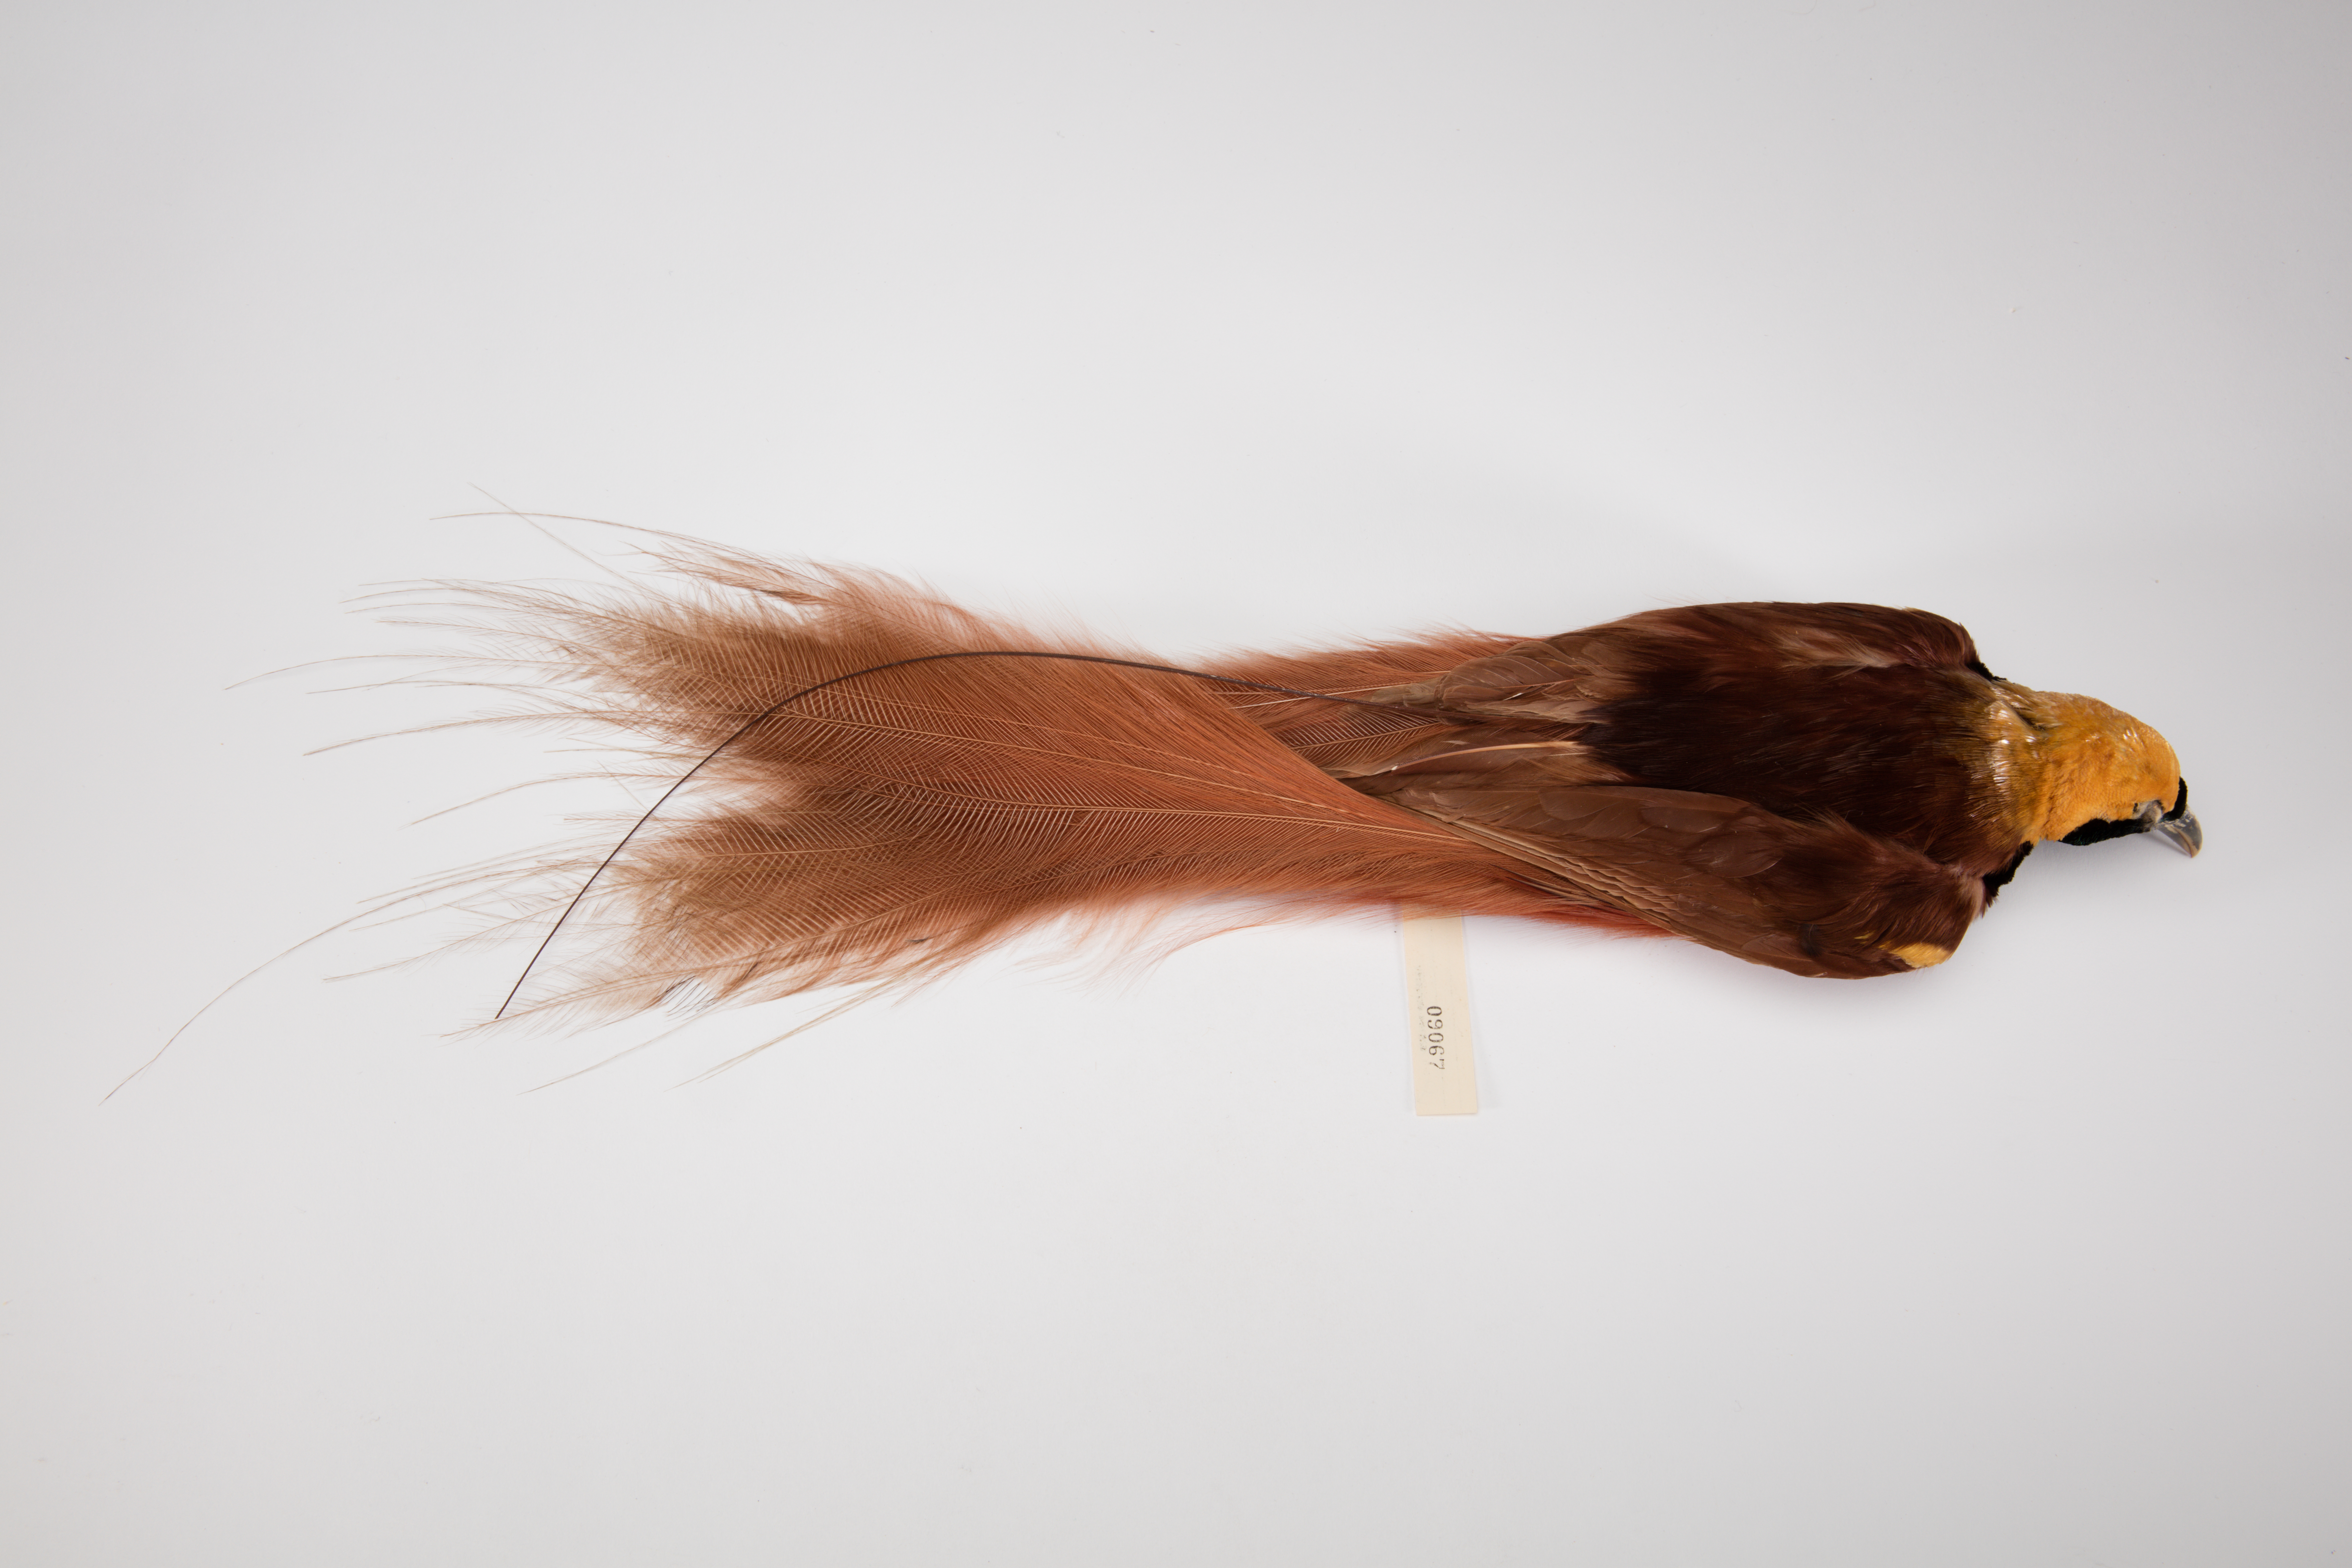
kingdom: Animalia
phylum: Chordata
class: Aves
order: Passeriformes
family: Paradisaeidae
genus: Paradisaea
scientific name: Paradisaea raggiana
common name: Raggiana bird-of-paradise
